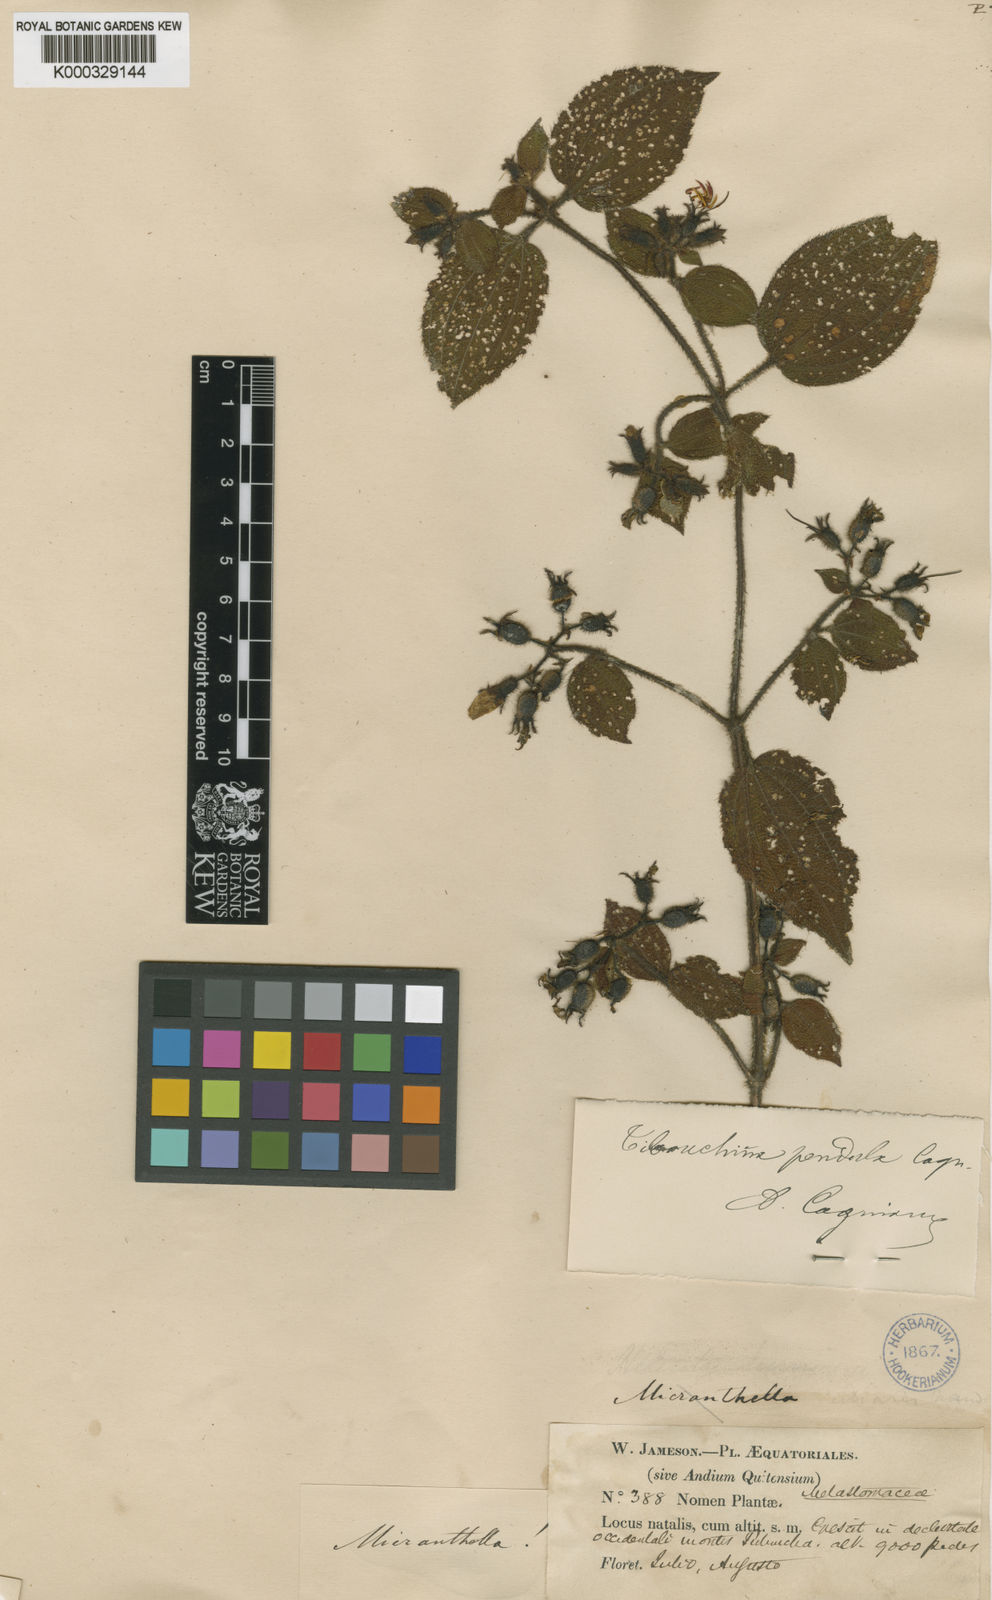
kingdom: Plantae
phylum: Tracheophyta
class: Magnoliopsida
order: Myrtales
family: Melastomataceae
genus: Chaetogastra
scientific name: Chaetogastra pendula
